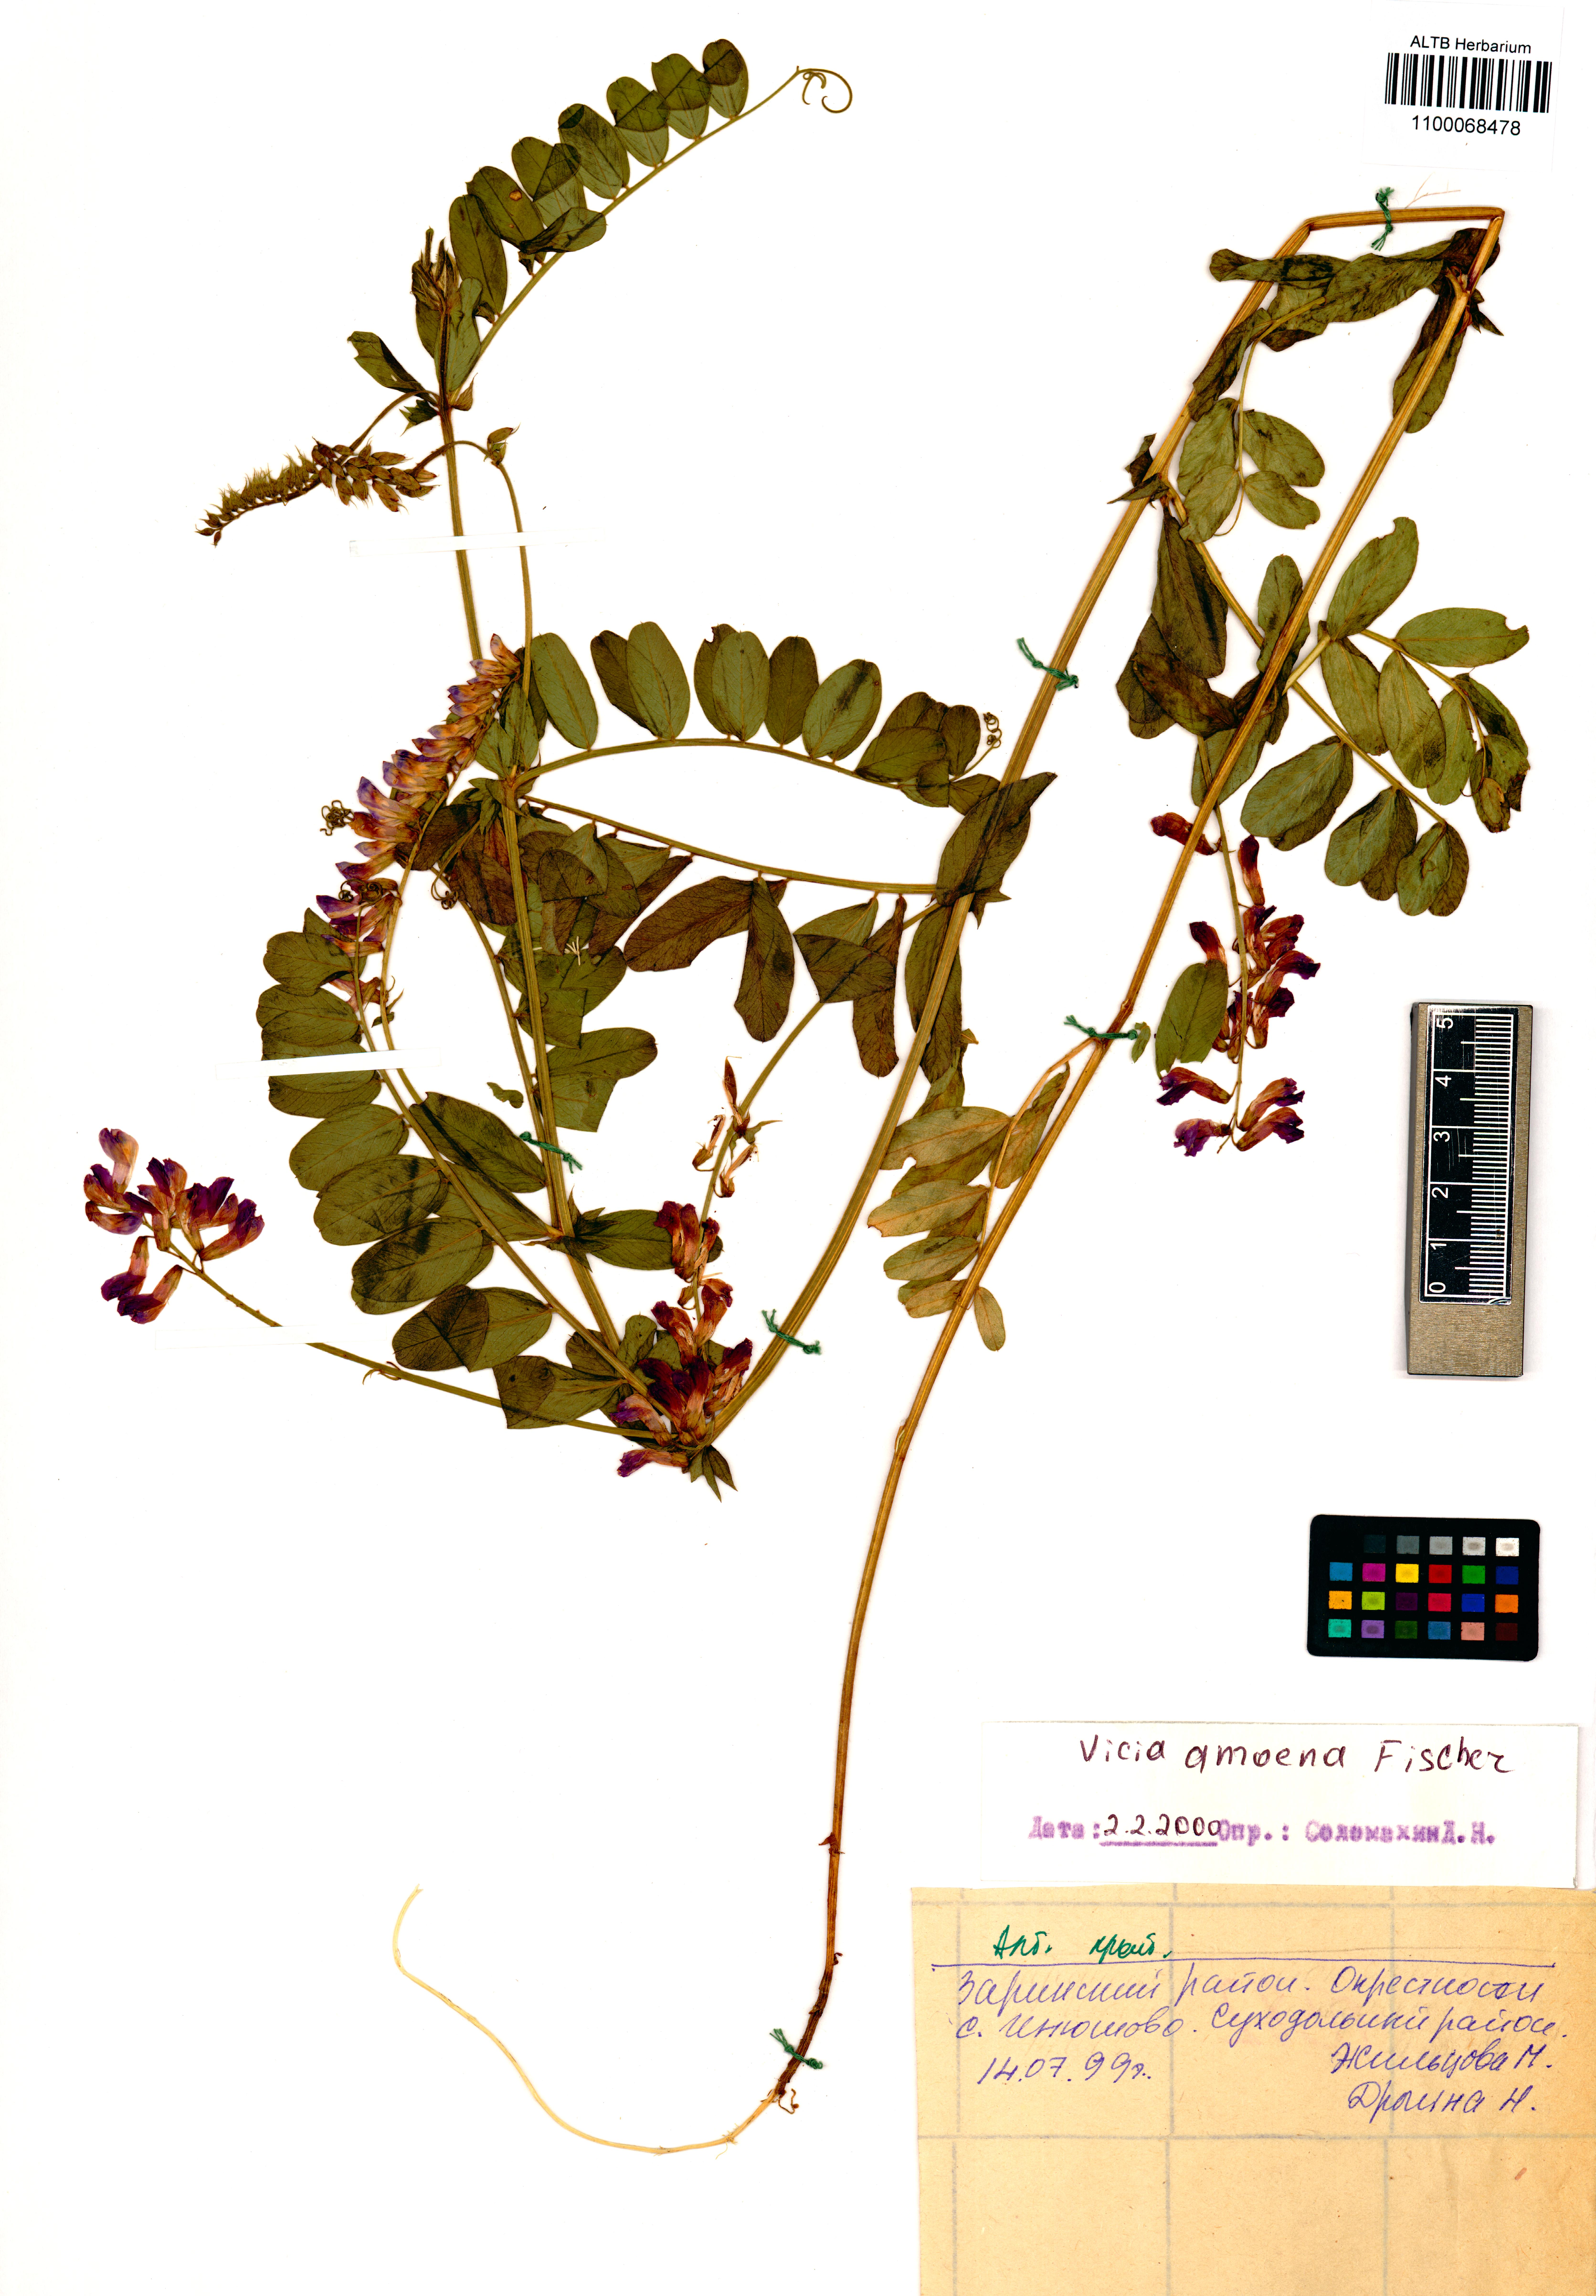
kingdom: Plantae
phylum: Tracheophyta
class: Magnoliopsida
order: Fabales
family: Fabaceae
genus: Vicia
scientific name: Vicia amoena
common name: Cheder ebs
